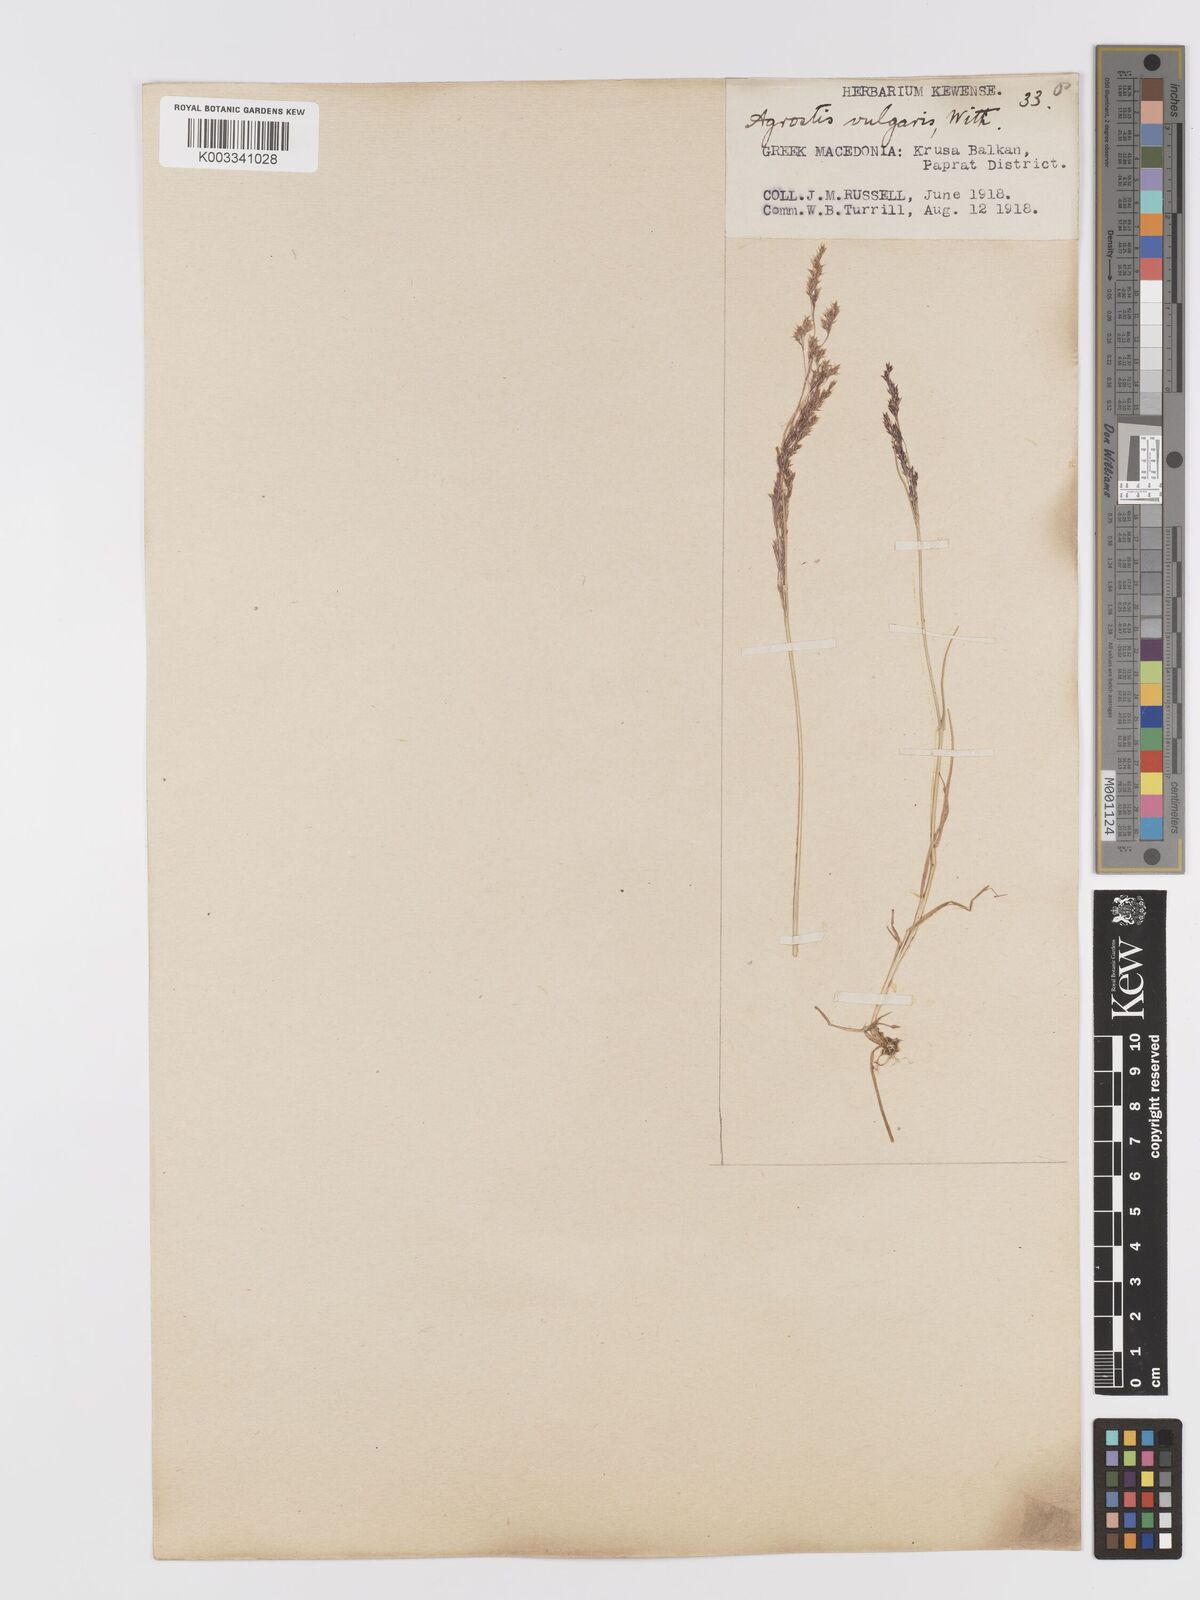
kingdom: Plantae
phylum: Tracheophyta
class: Liliopsida
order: Poales
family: Poaceae
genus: Agrostis
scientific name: Agrostis capillaris
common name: Colonial bentgrass
